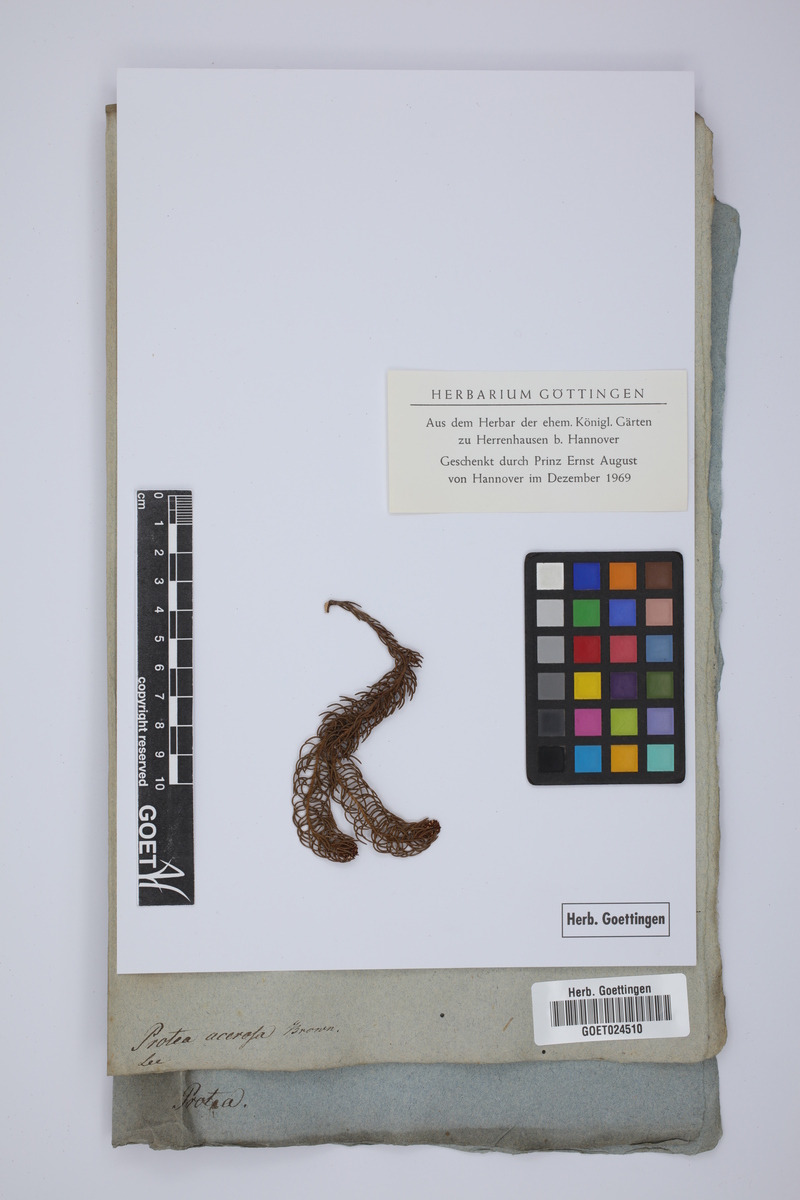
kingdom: Plantae
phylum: Tracheophyta
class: Magnoliopsida
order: Proteales
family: Proteaceae
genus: Protea
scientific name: Protea subulifolia
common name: Awl-leaf sugarbush
